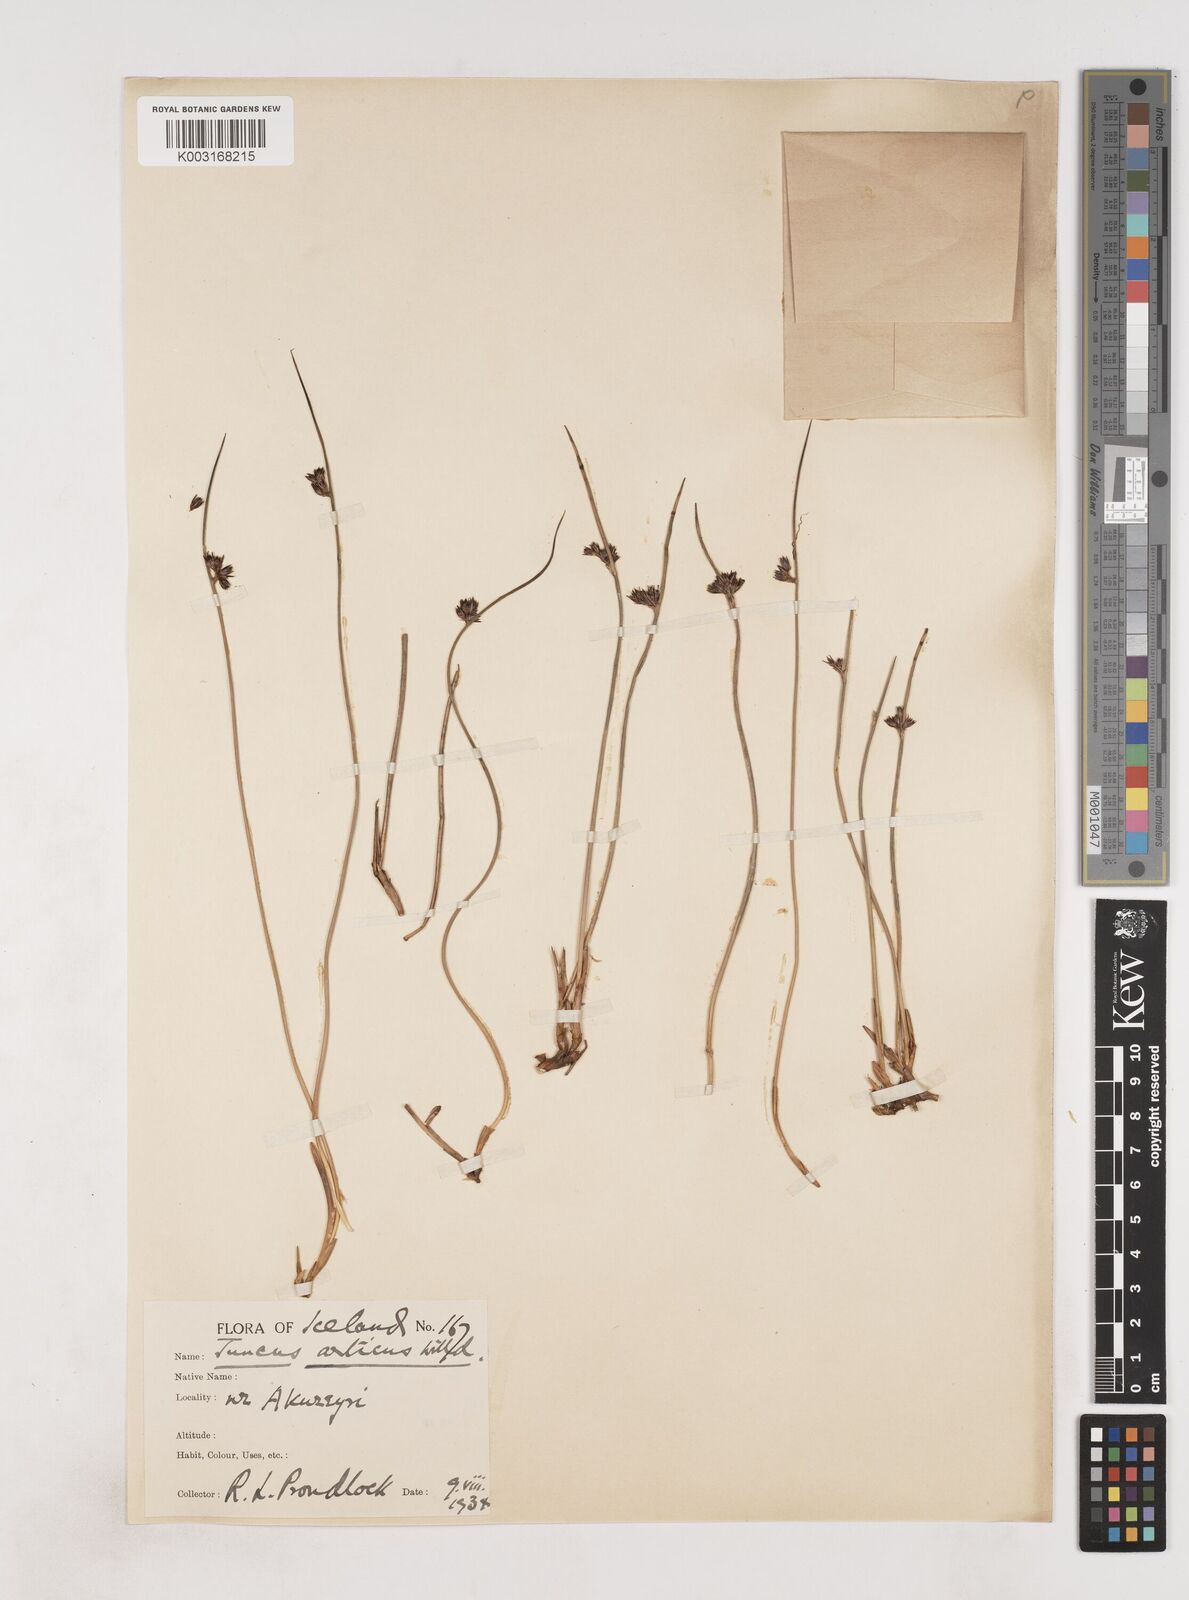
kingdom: Plantae
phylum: Tracheophyta
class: Liliopsida
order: Poales
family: Juncaceae
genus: Juncus
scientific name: Juncus arcticus
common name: Arctic rush
